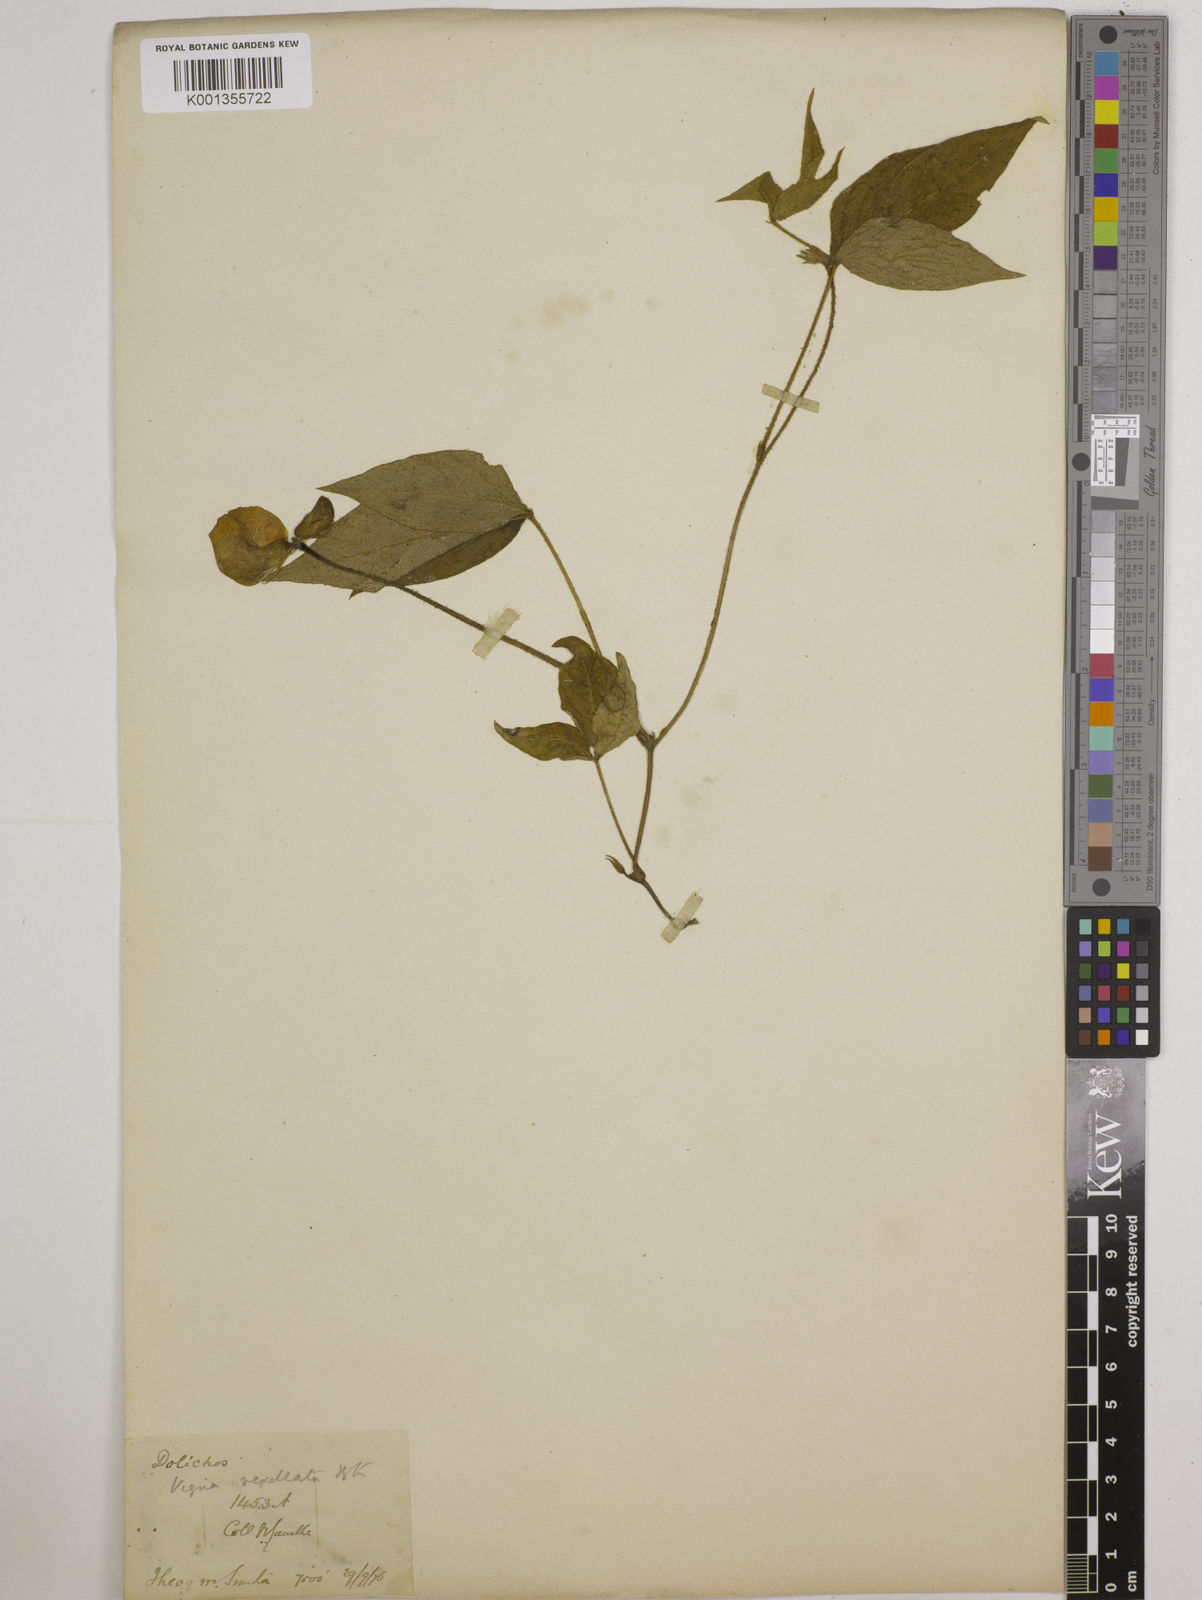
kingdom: Plantae
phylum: Tracheophyta
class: Magnoliopsida
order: Fabales
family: Fabaceae
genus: Vigna
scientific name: Vigna vexillata
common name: Zombi pea
